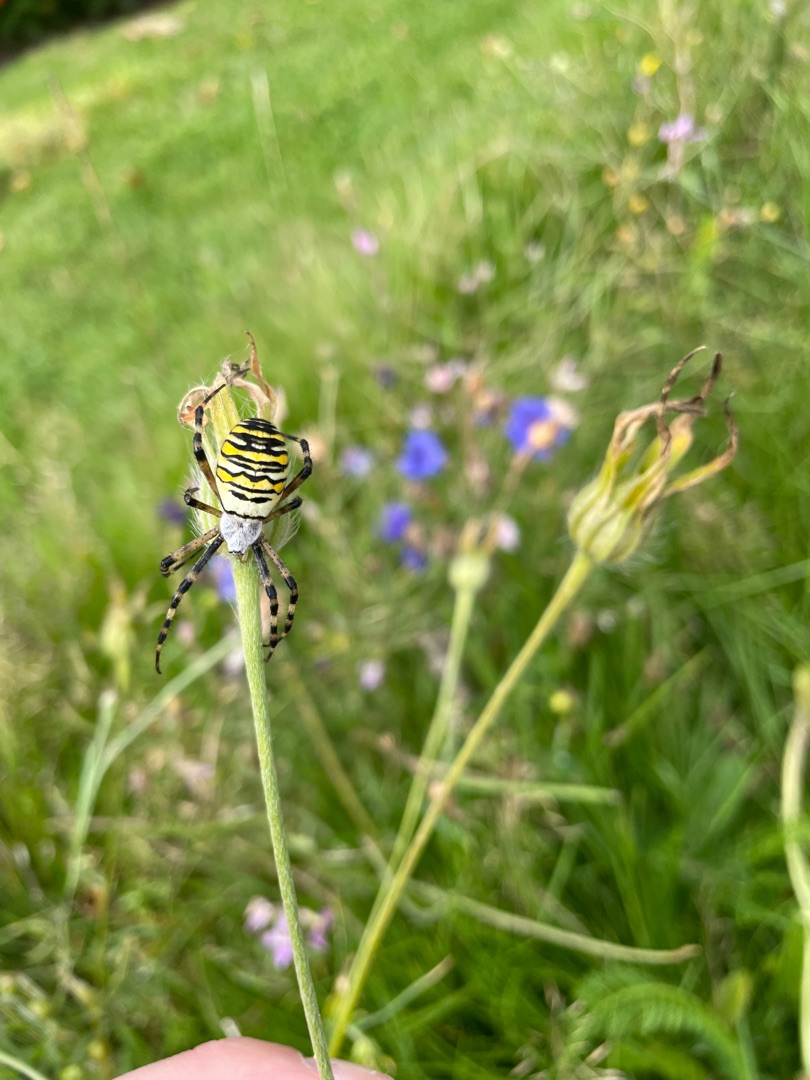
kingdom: Animalia
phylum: Arthropoda
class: Arachnida
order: Araneae
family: Araneidae
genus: Argiope
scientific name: Argiope bruennichi
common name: Hvepseedderkop
